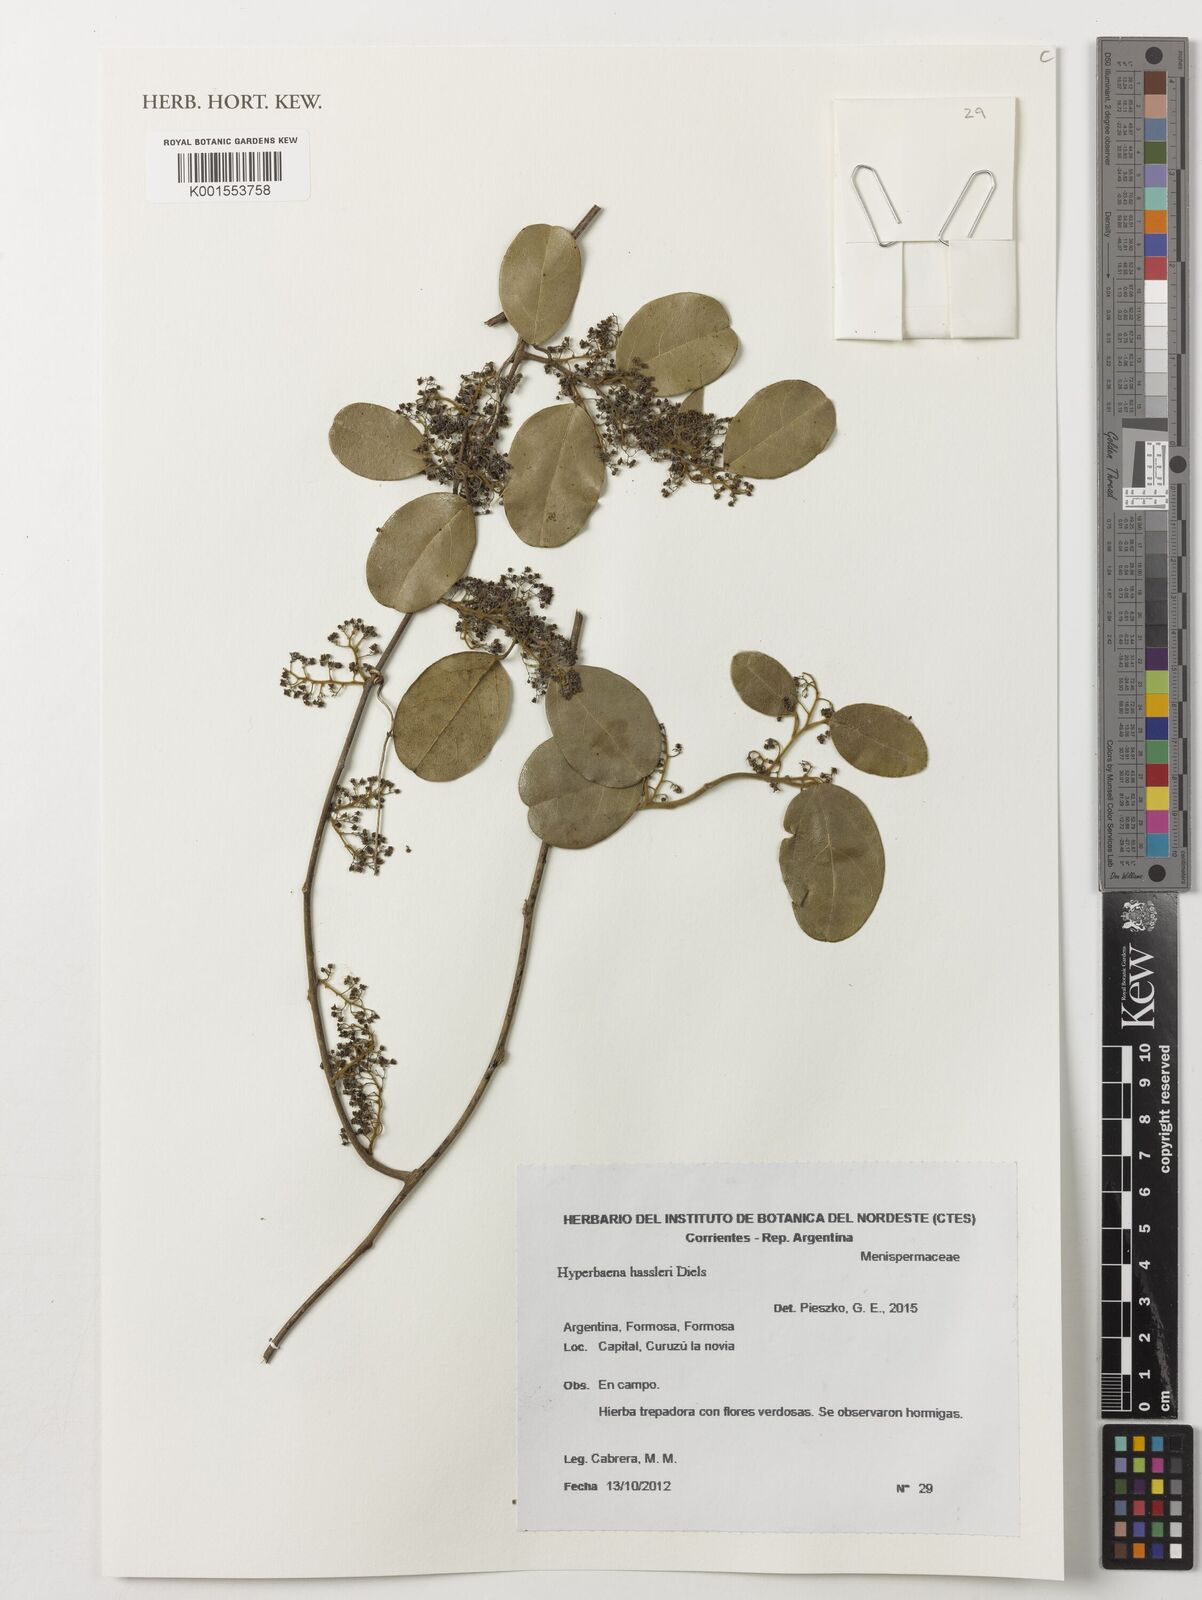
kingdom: Plantae
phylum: Tracheophyta
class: Magnoliopsida
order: Ranunculales
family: Menispermaceae
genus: Hyperbaena
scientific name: Hyperbaena hassleri
